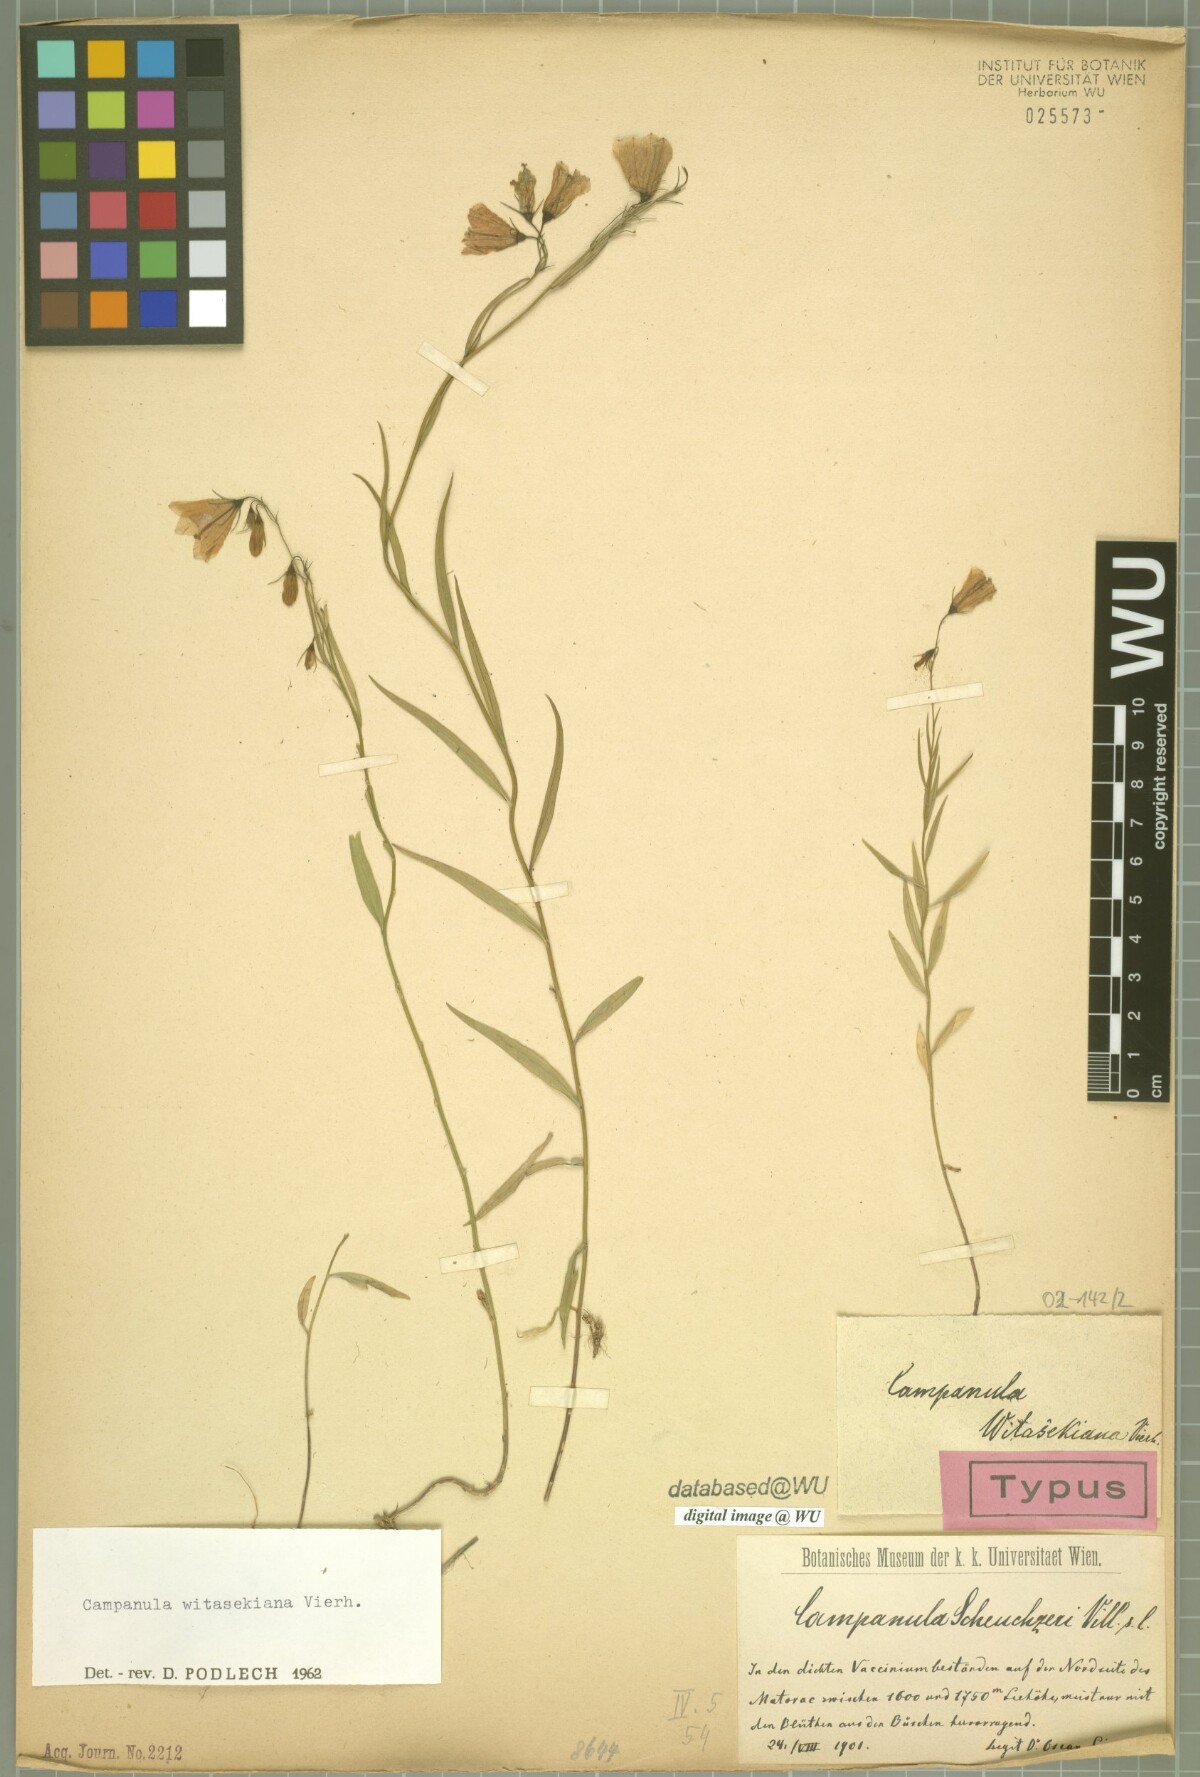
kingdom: Plantae
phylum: Tracheophyta
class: Magnoliopsida
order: Asterales
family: Campanulaceae
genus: Campanula
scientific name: Campanula witasekiana
